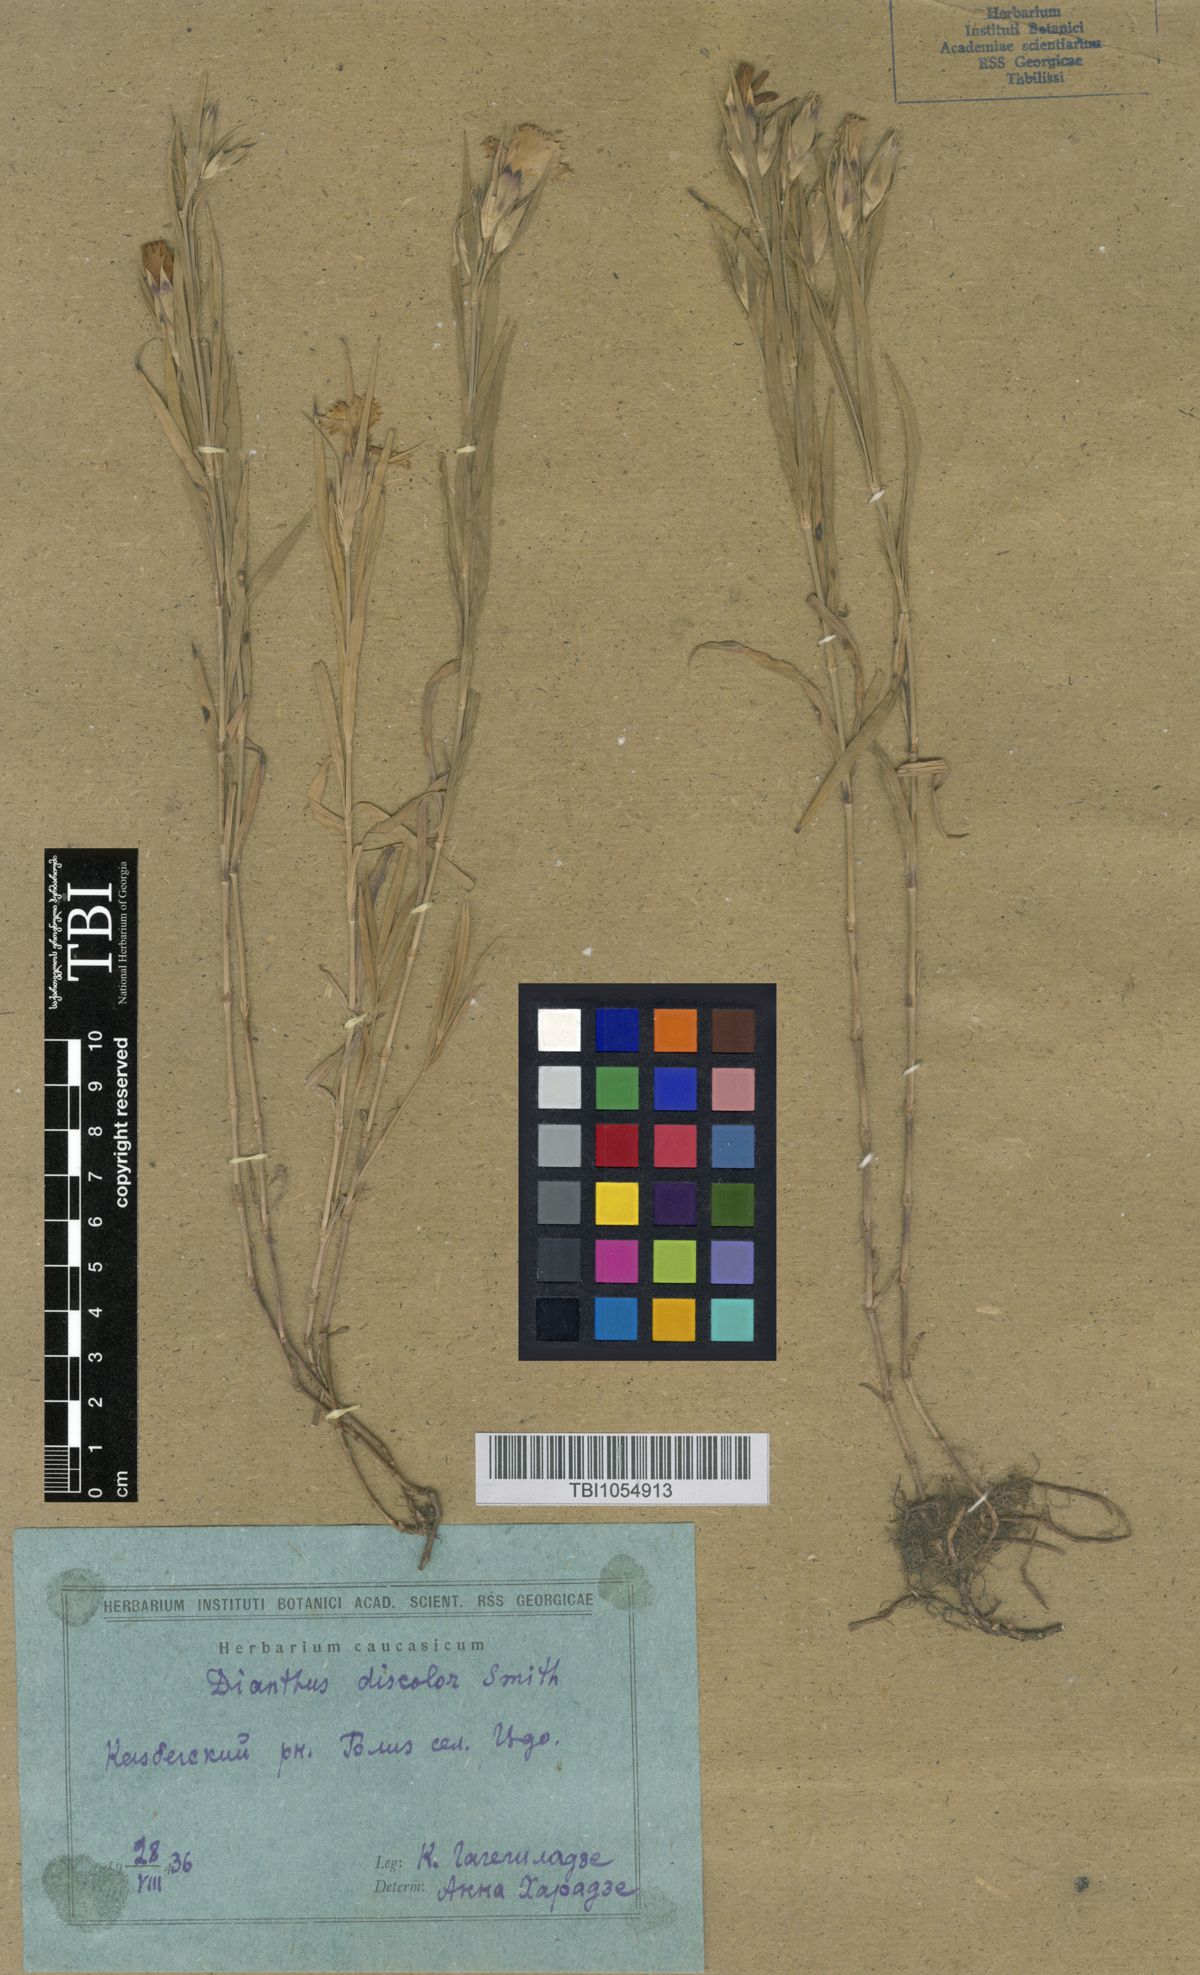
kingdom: Plantae
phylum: Tracheophyta
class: Magnoliopsida
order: Caryophyllales
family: Caryophyllaceae
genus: Dianthus
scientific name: Dianthus caucaseus
